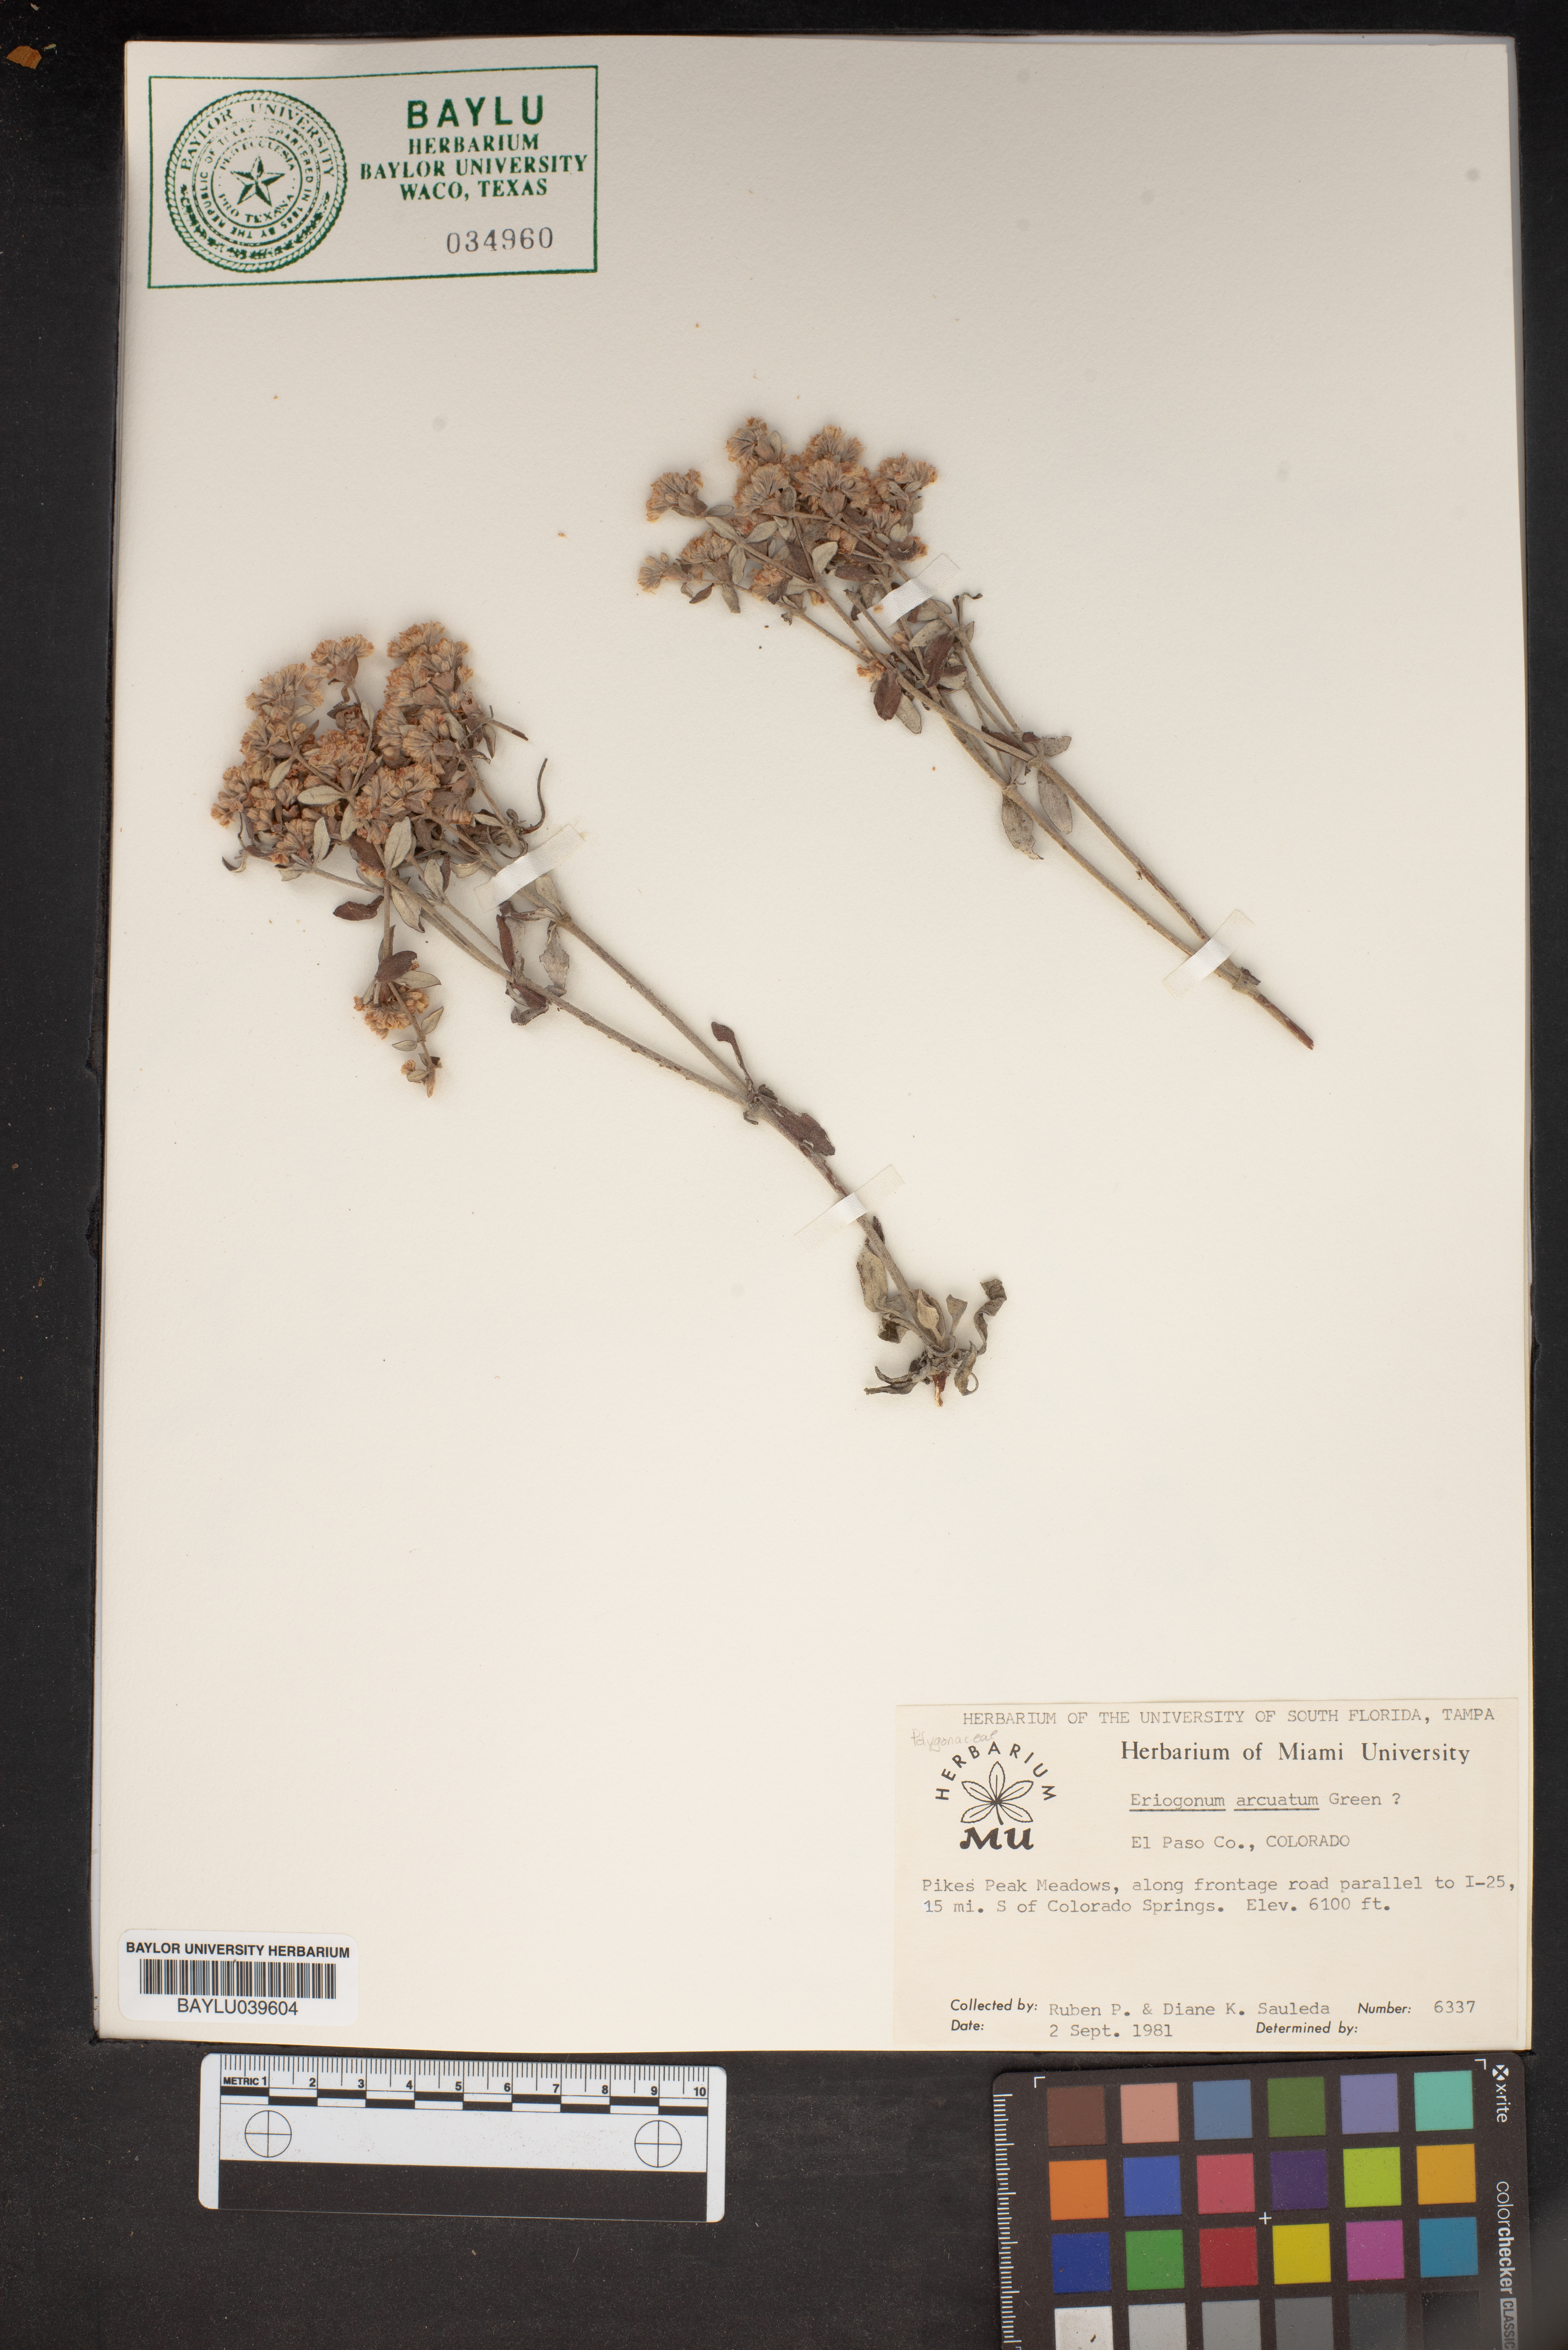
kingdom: Plantae
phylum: Tracheophyta
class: Magnoliopsida
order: Caryophyllales
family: Polygonaceae
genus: Eriogonum
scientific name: Eriogonum arcuatum
